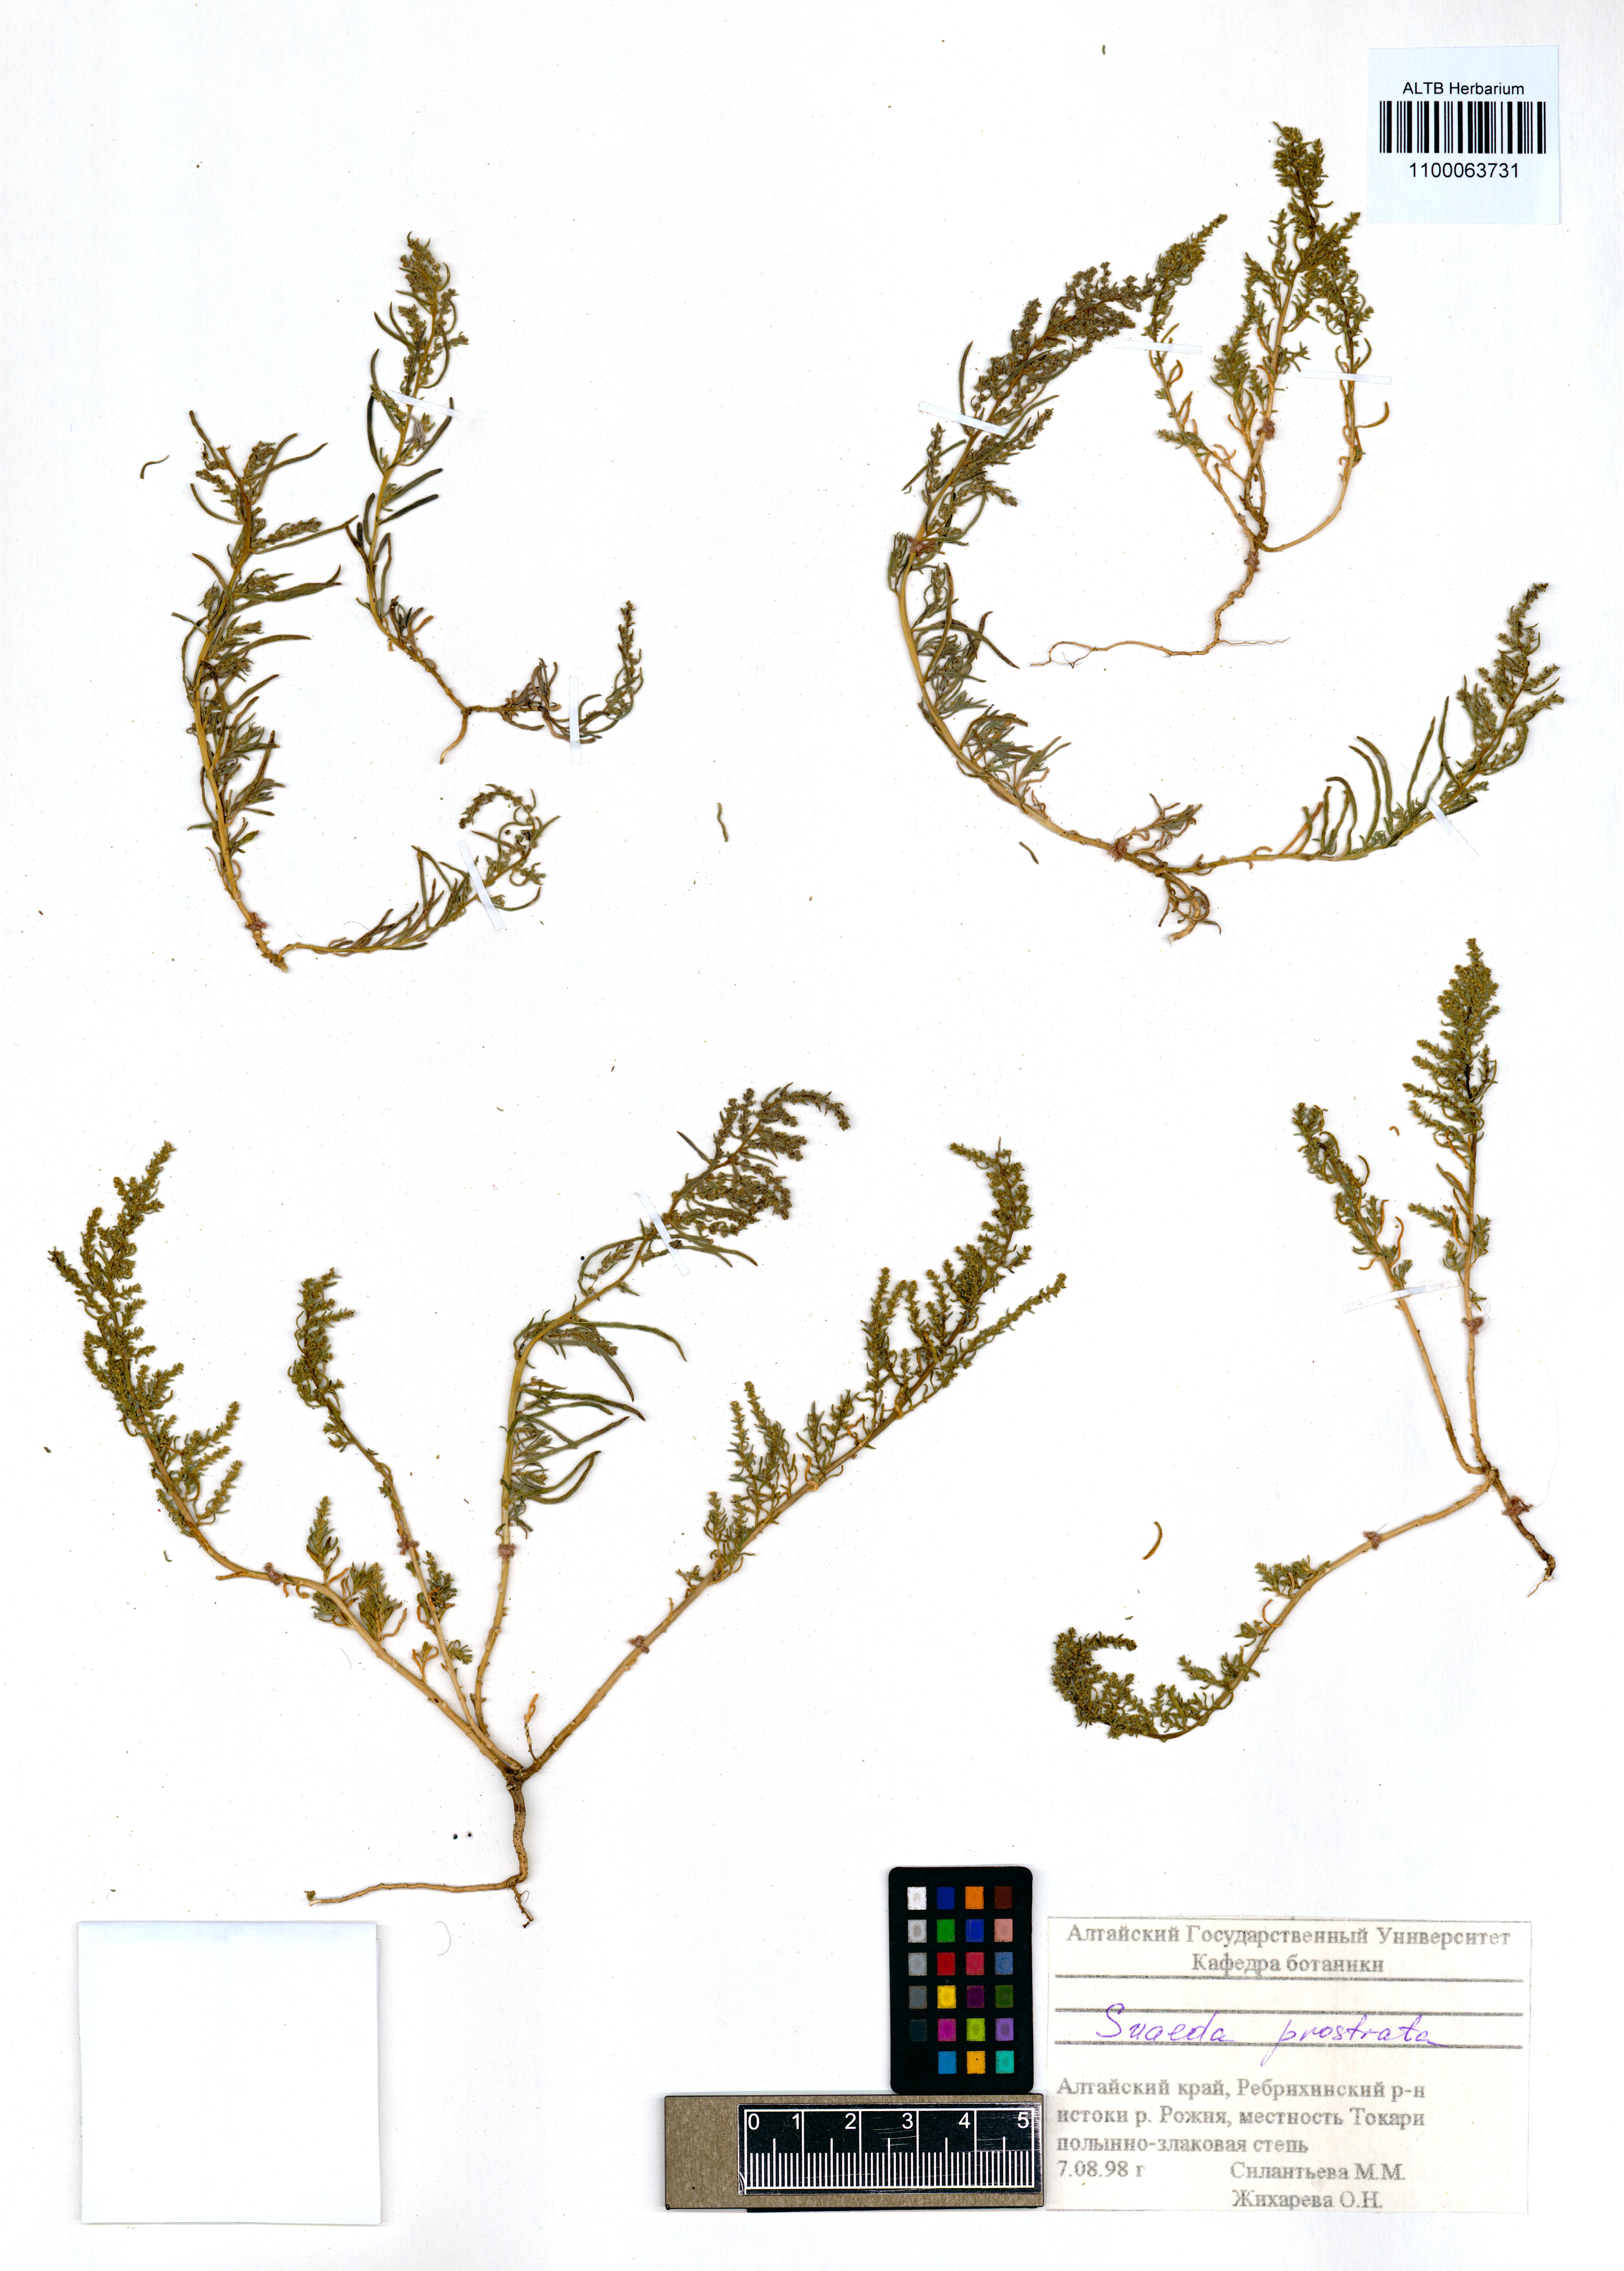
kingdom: Plantae
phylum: Tracheophyta
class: Magnoliopsida
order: Caryophyllales
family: Amaranthaceae
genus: Suaeda
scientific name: Suaeda prostrata
